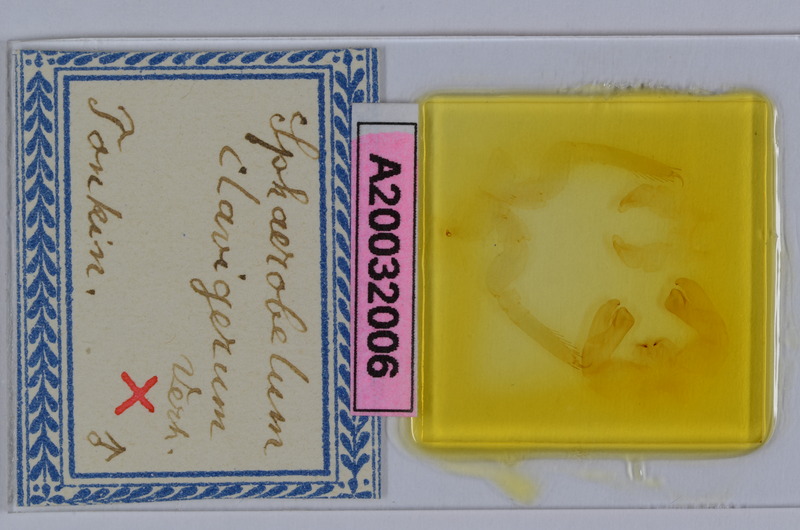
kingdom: Animalia
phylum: Arthropoda
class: Diplopoda
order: Sphaerotheriida
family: Zephroniidae
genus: Sphaerobelum
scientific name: Sphaerobelum clavigerum
